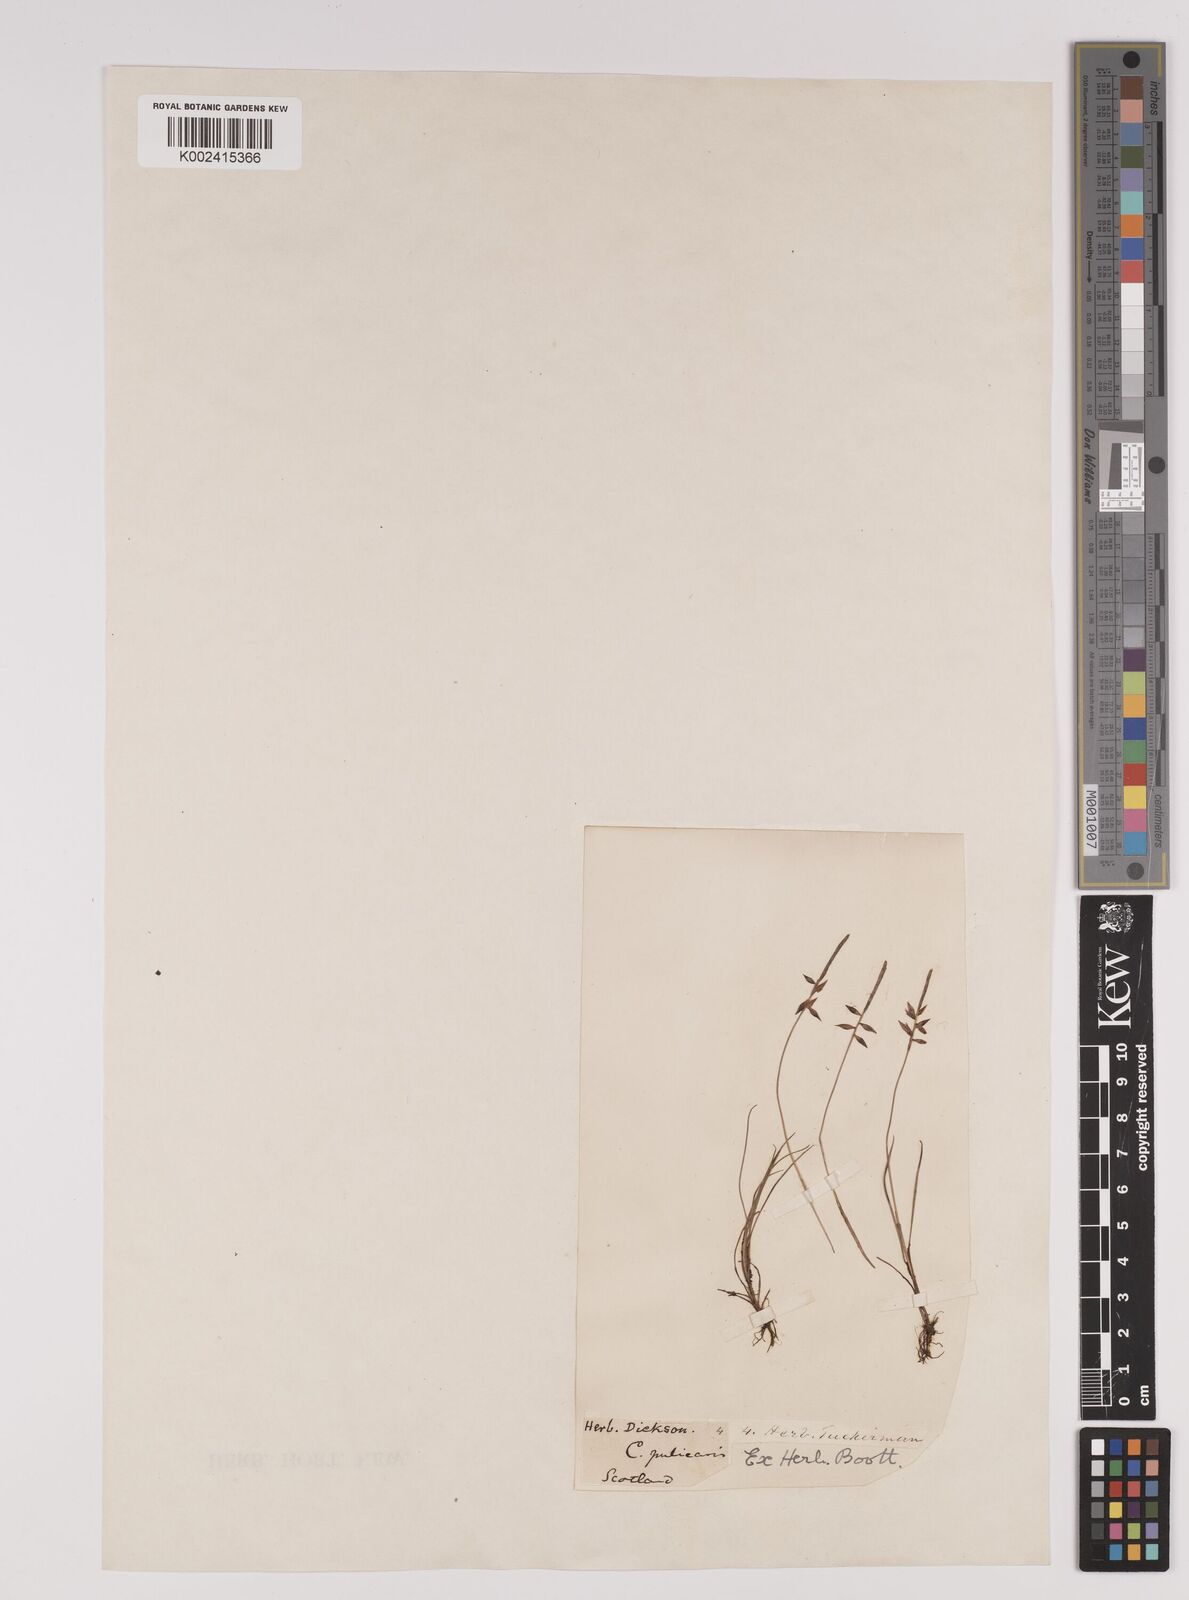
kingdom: Plantae
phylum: Tracheophyta
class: Liliopsida
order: Poales
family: Cyperaceae
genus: Carex
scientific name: Carex pulicaris
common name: Flea sedge
